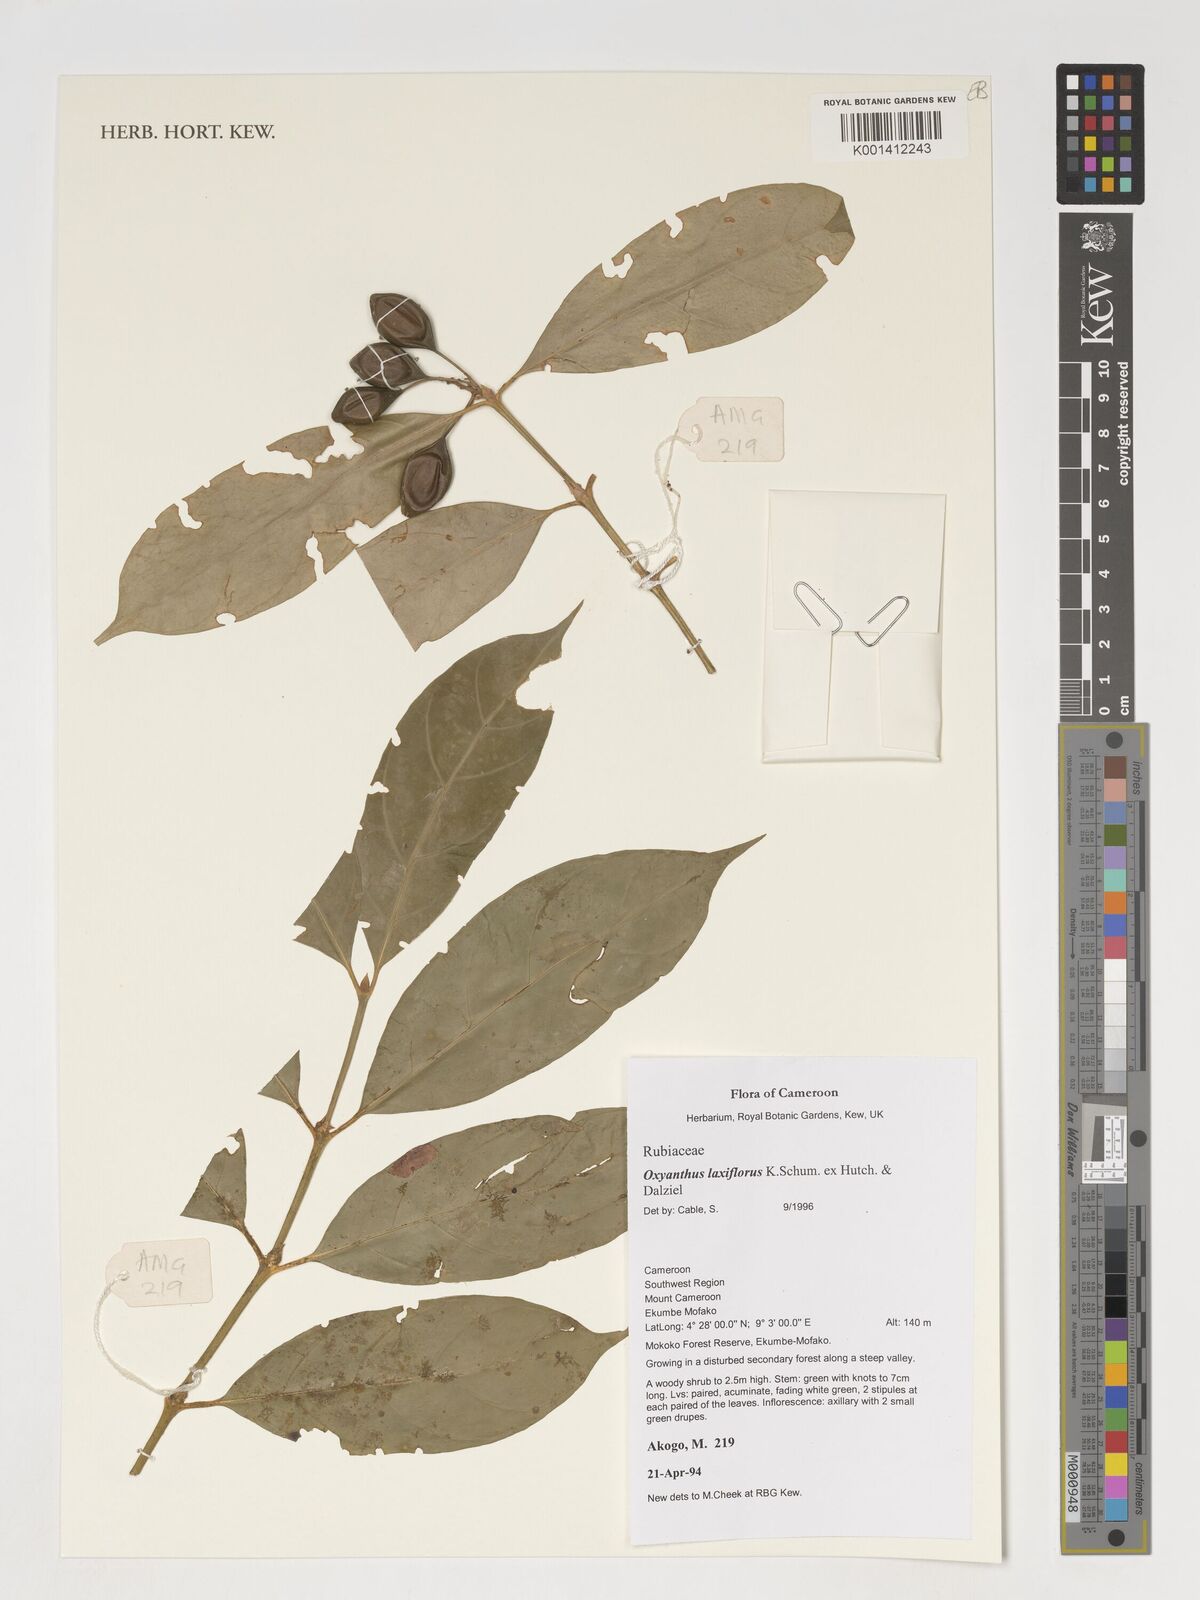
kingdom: Plantae
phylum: Tracheophyta
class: Magnoliopsida
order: Gentianales
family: Rubiaceae
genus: Oxyanthus
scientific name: Oxyanthus laxiflorus
